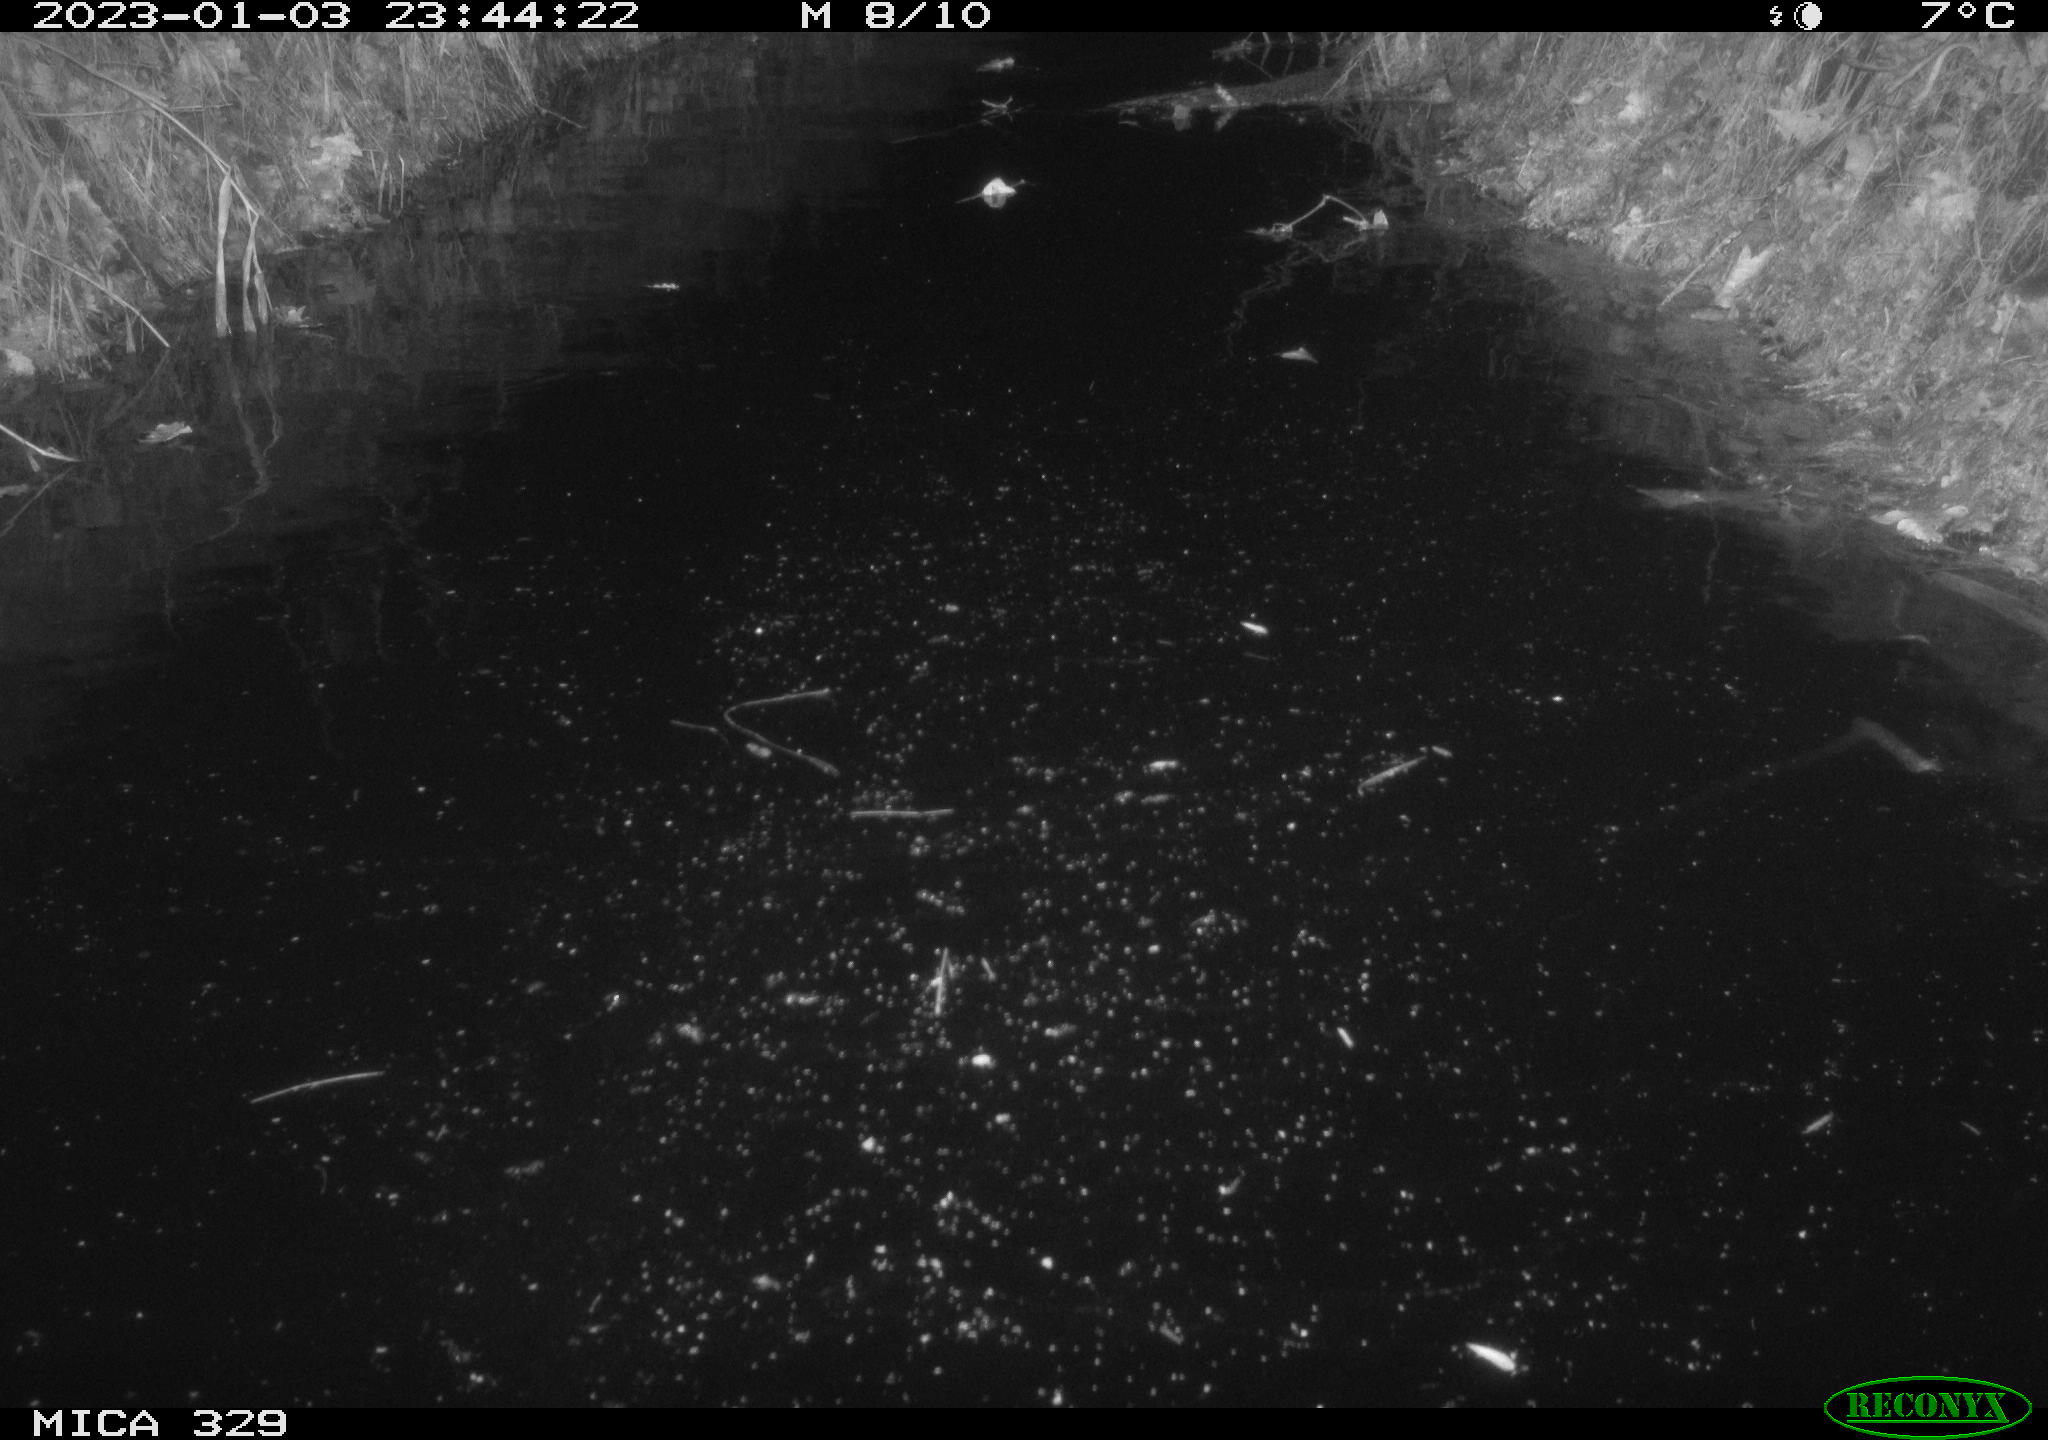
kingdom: Animalia
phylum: Chordata
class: Mammalia
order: Rodentia
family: Cricetidae
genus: Ondatra
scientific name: Ondatra zibethicus
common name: Muskrat
